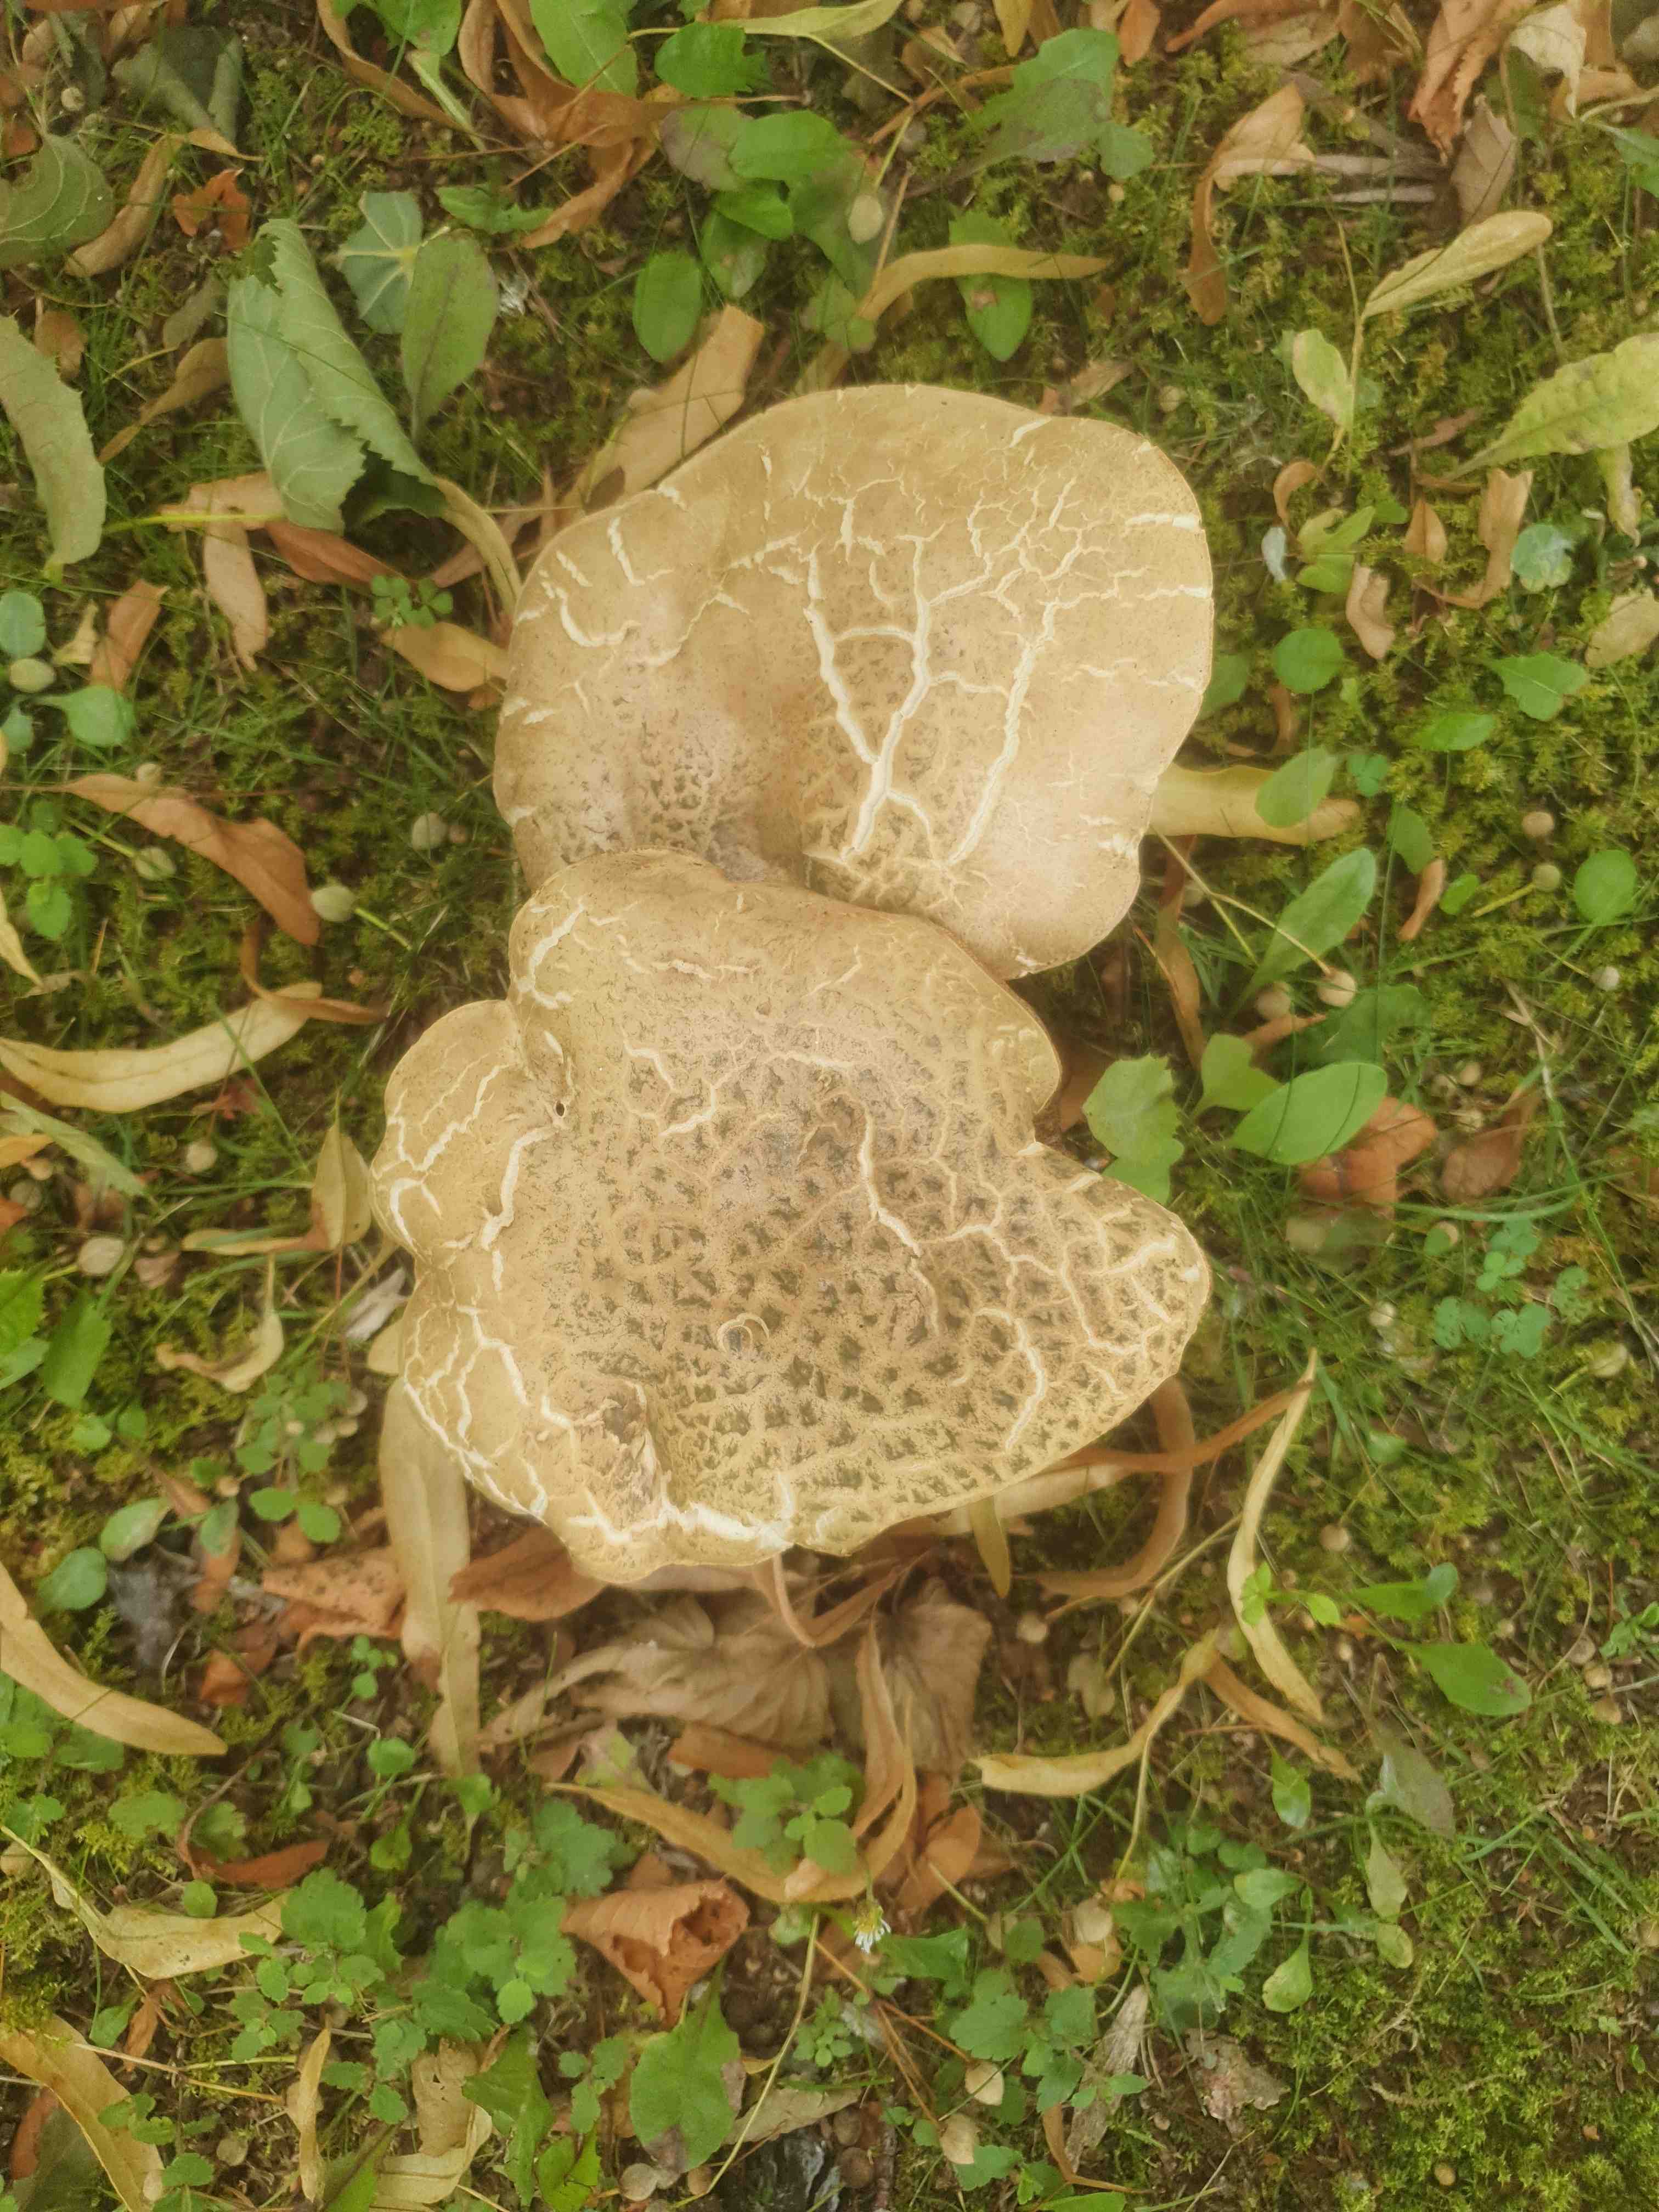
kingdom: Fungi
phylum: Basidiomycota
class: Agaricomycetes
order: Boletales
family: Boletaceae
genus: Caloboletus
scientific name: Caloboletus radicans
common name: rod-rørhat
